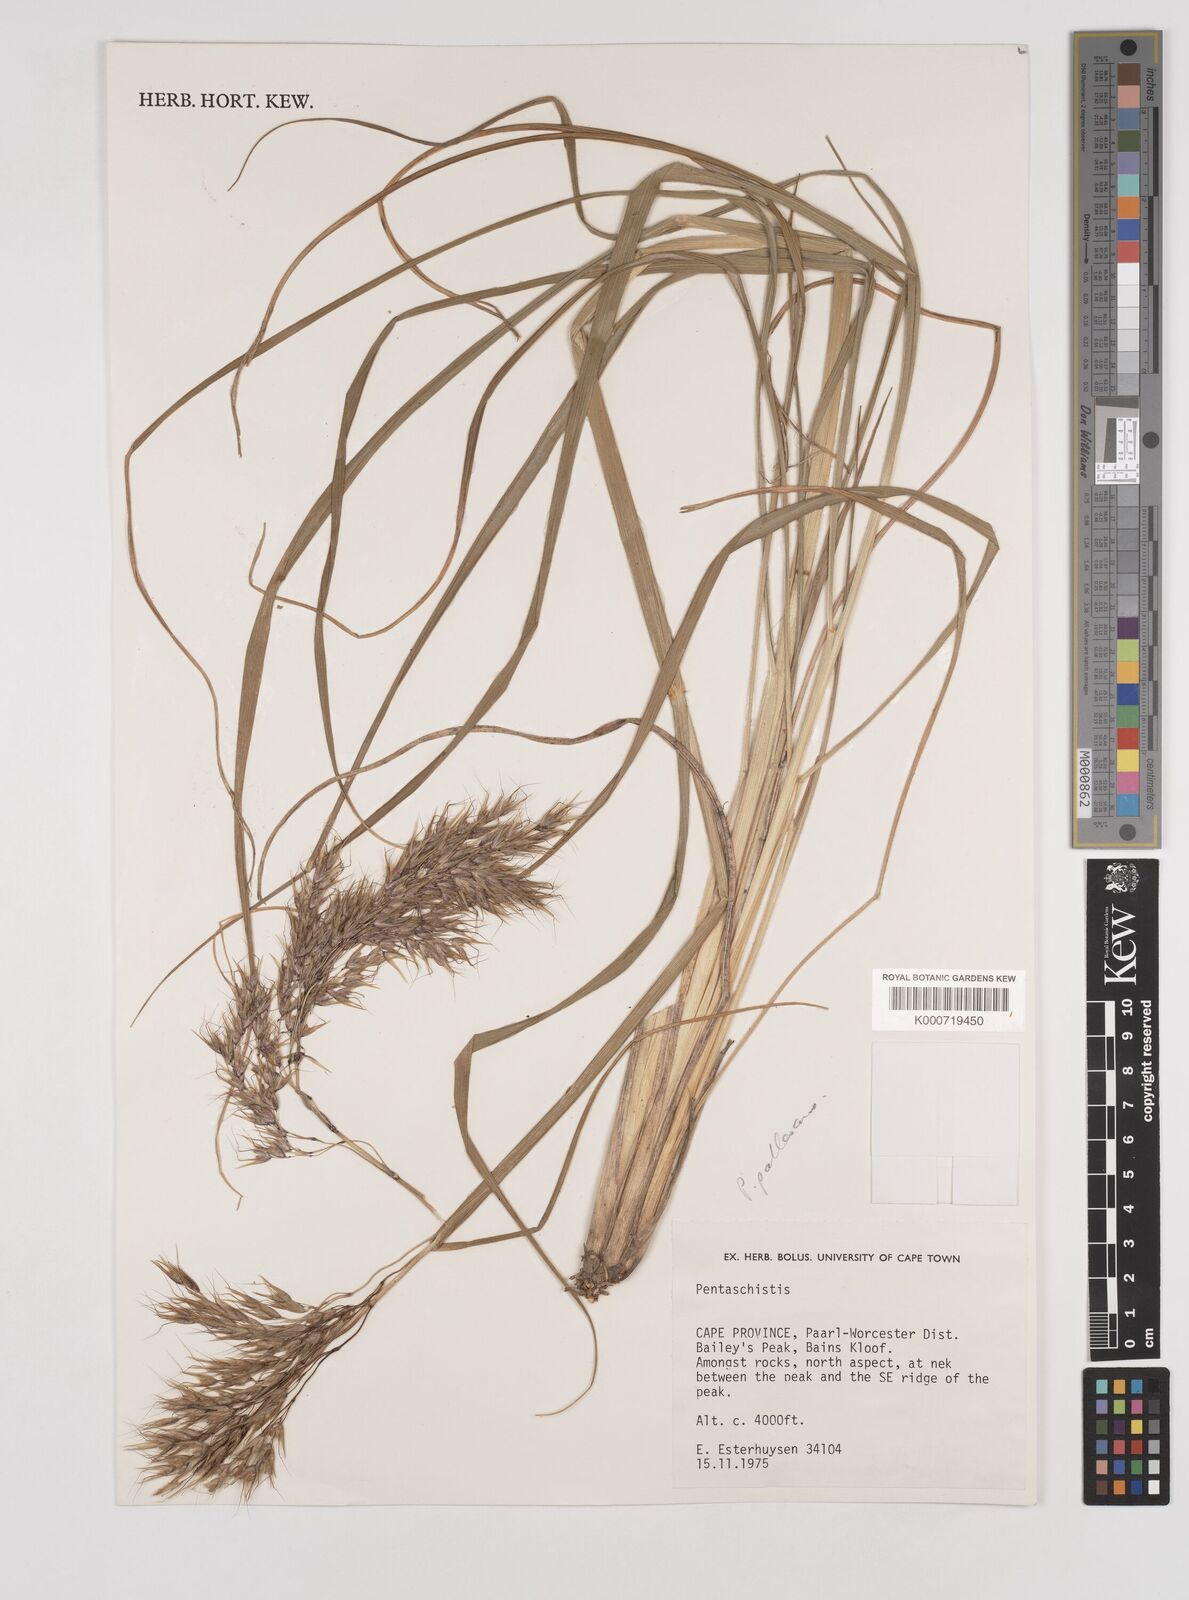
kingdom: Plantae
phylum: Tracheophyta
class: Liliopsida
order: Poales
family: Poaceae
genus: Pentameris
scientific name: Pentameris pallescens
